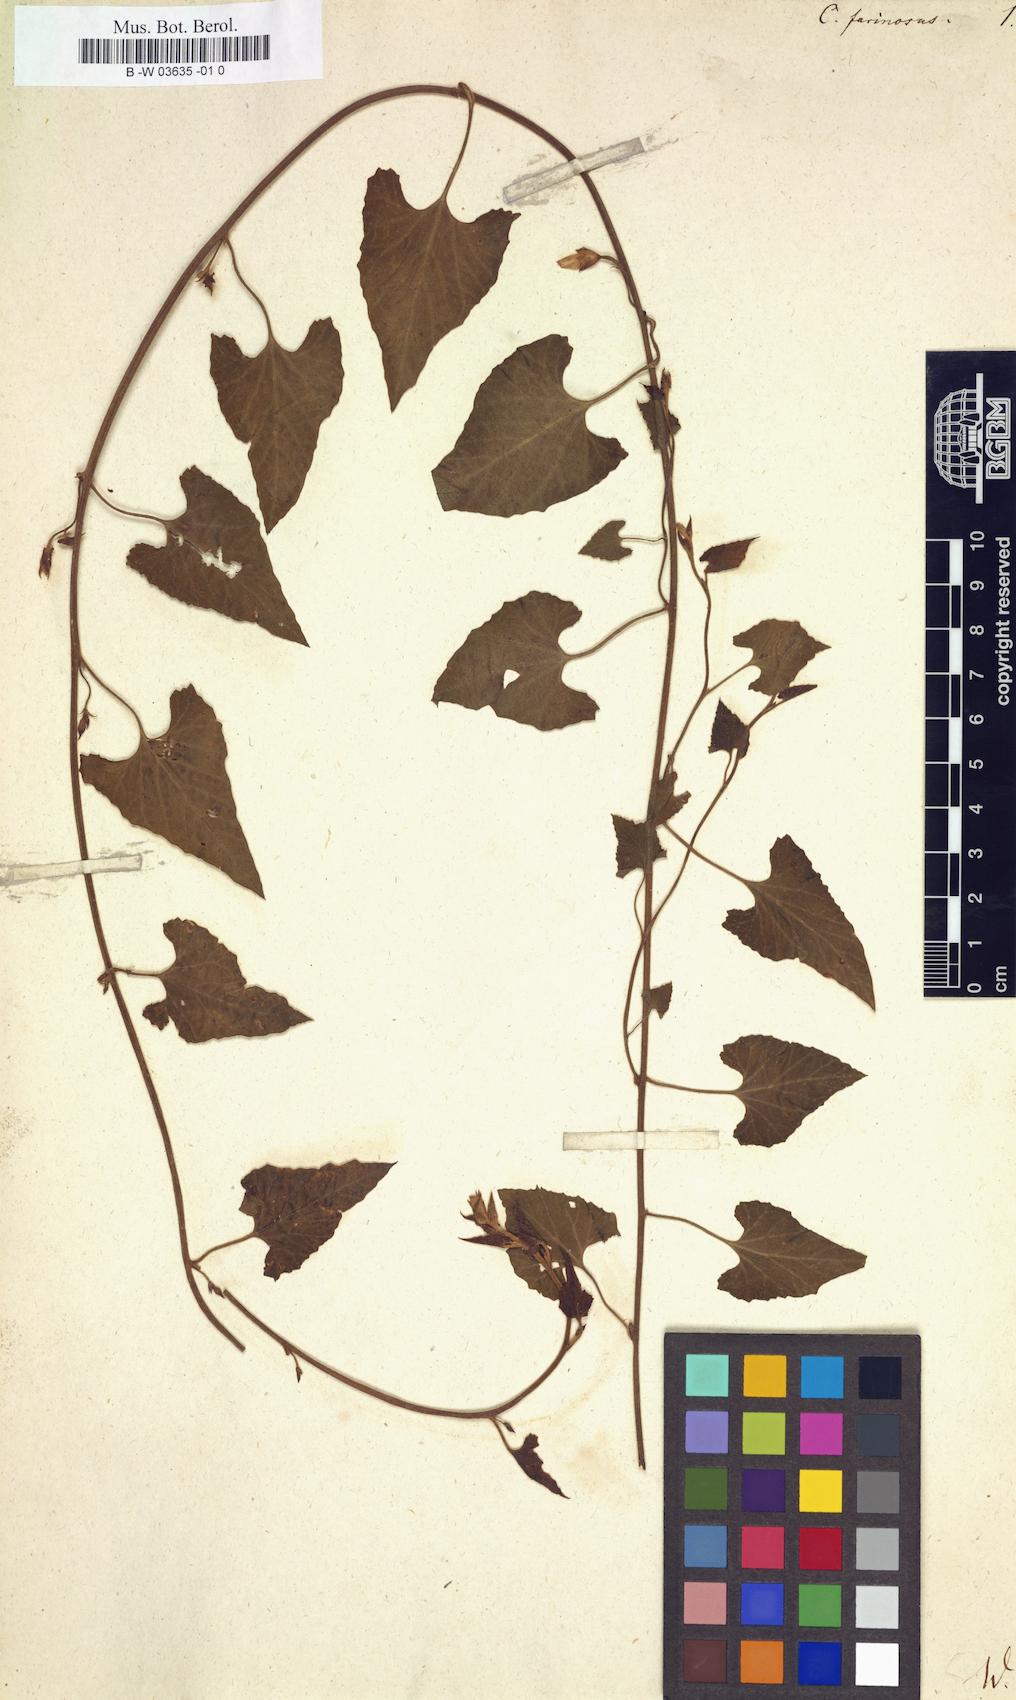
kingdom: Plantae
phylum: Tracheophyta
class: Magnoliopsida
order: Solanales
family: Convolvulaceae
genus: Convolvulus
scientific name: Convolvulus farinosus
